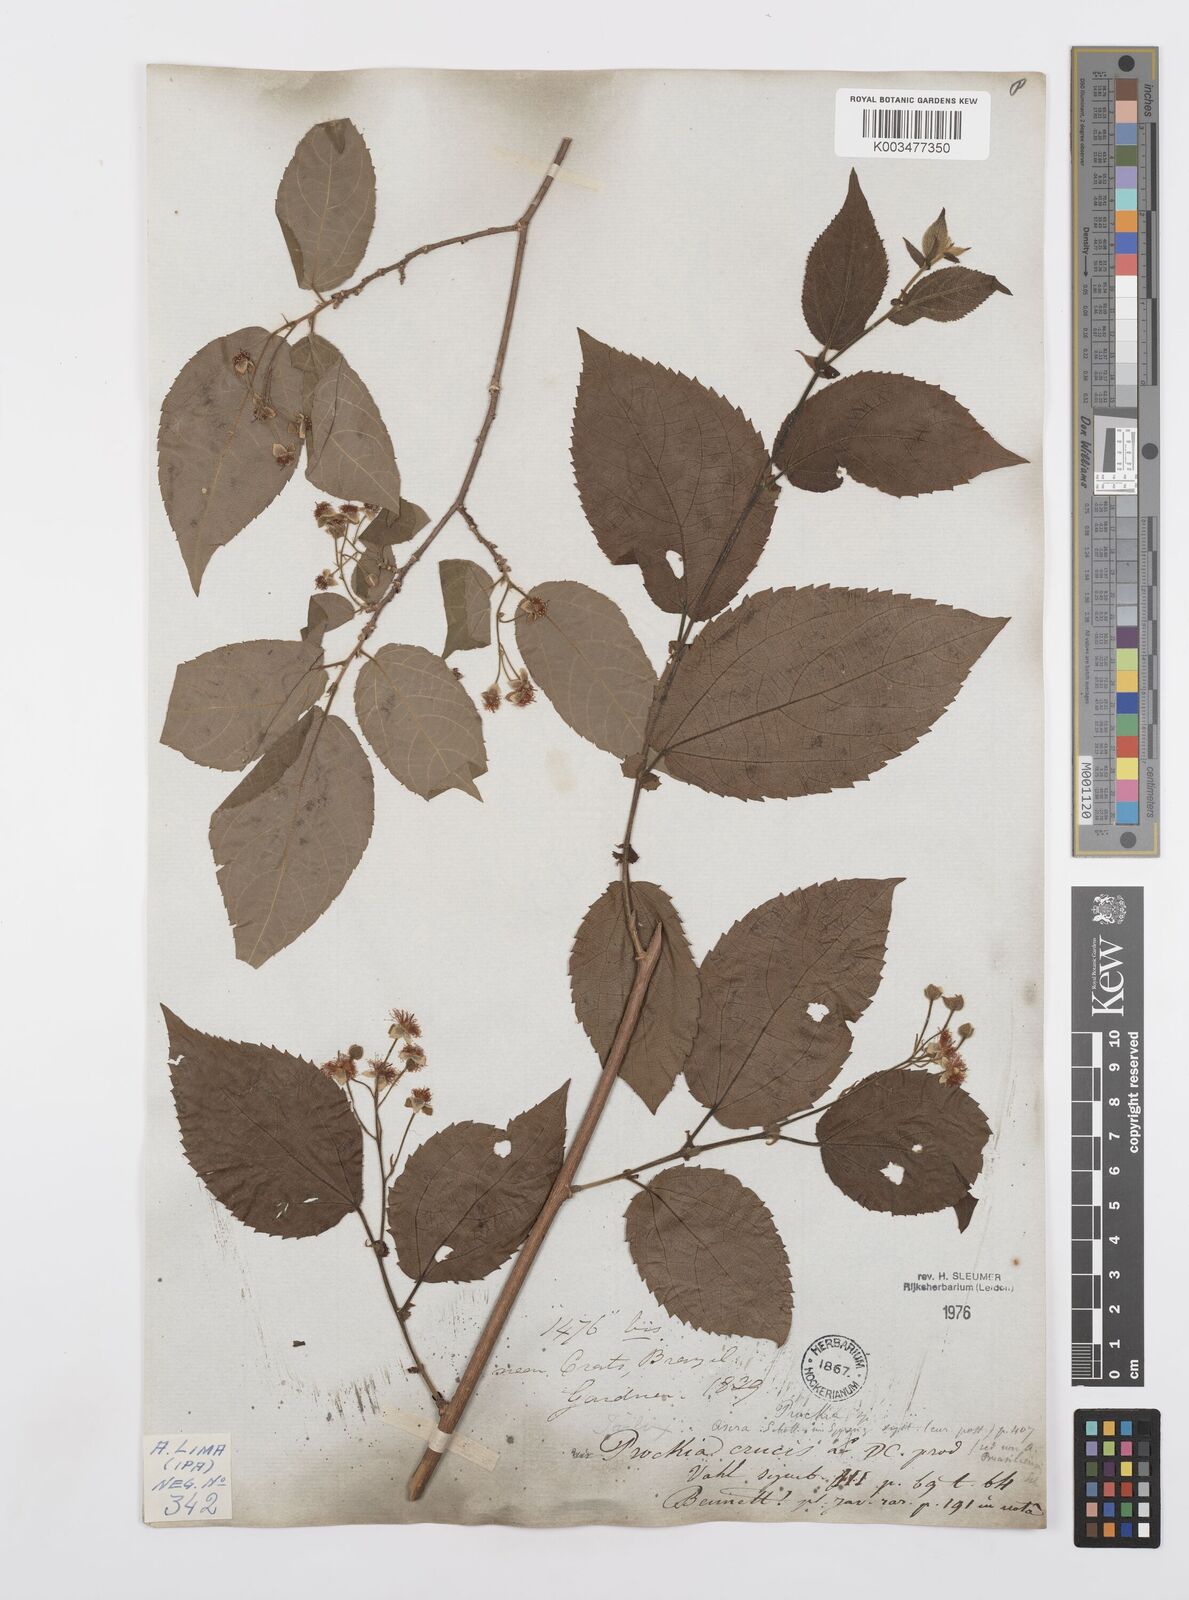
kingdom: Plantae
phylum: Tracheophyta
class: Magnoliopsida
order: Malpighiales
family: Salicaceae
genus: Prockia
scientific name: Prockia crucis
